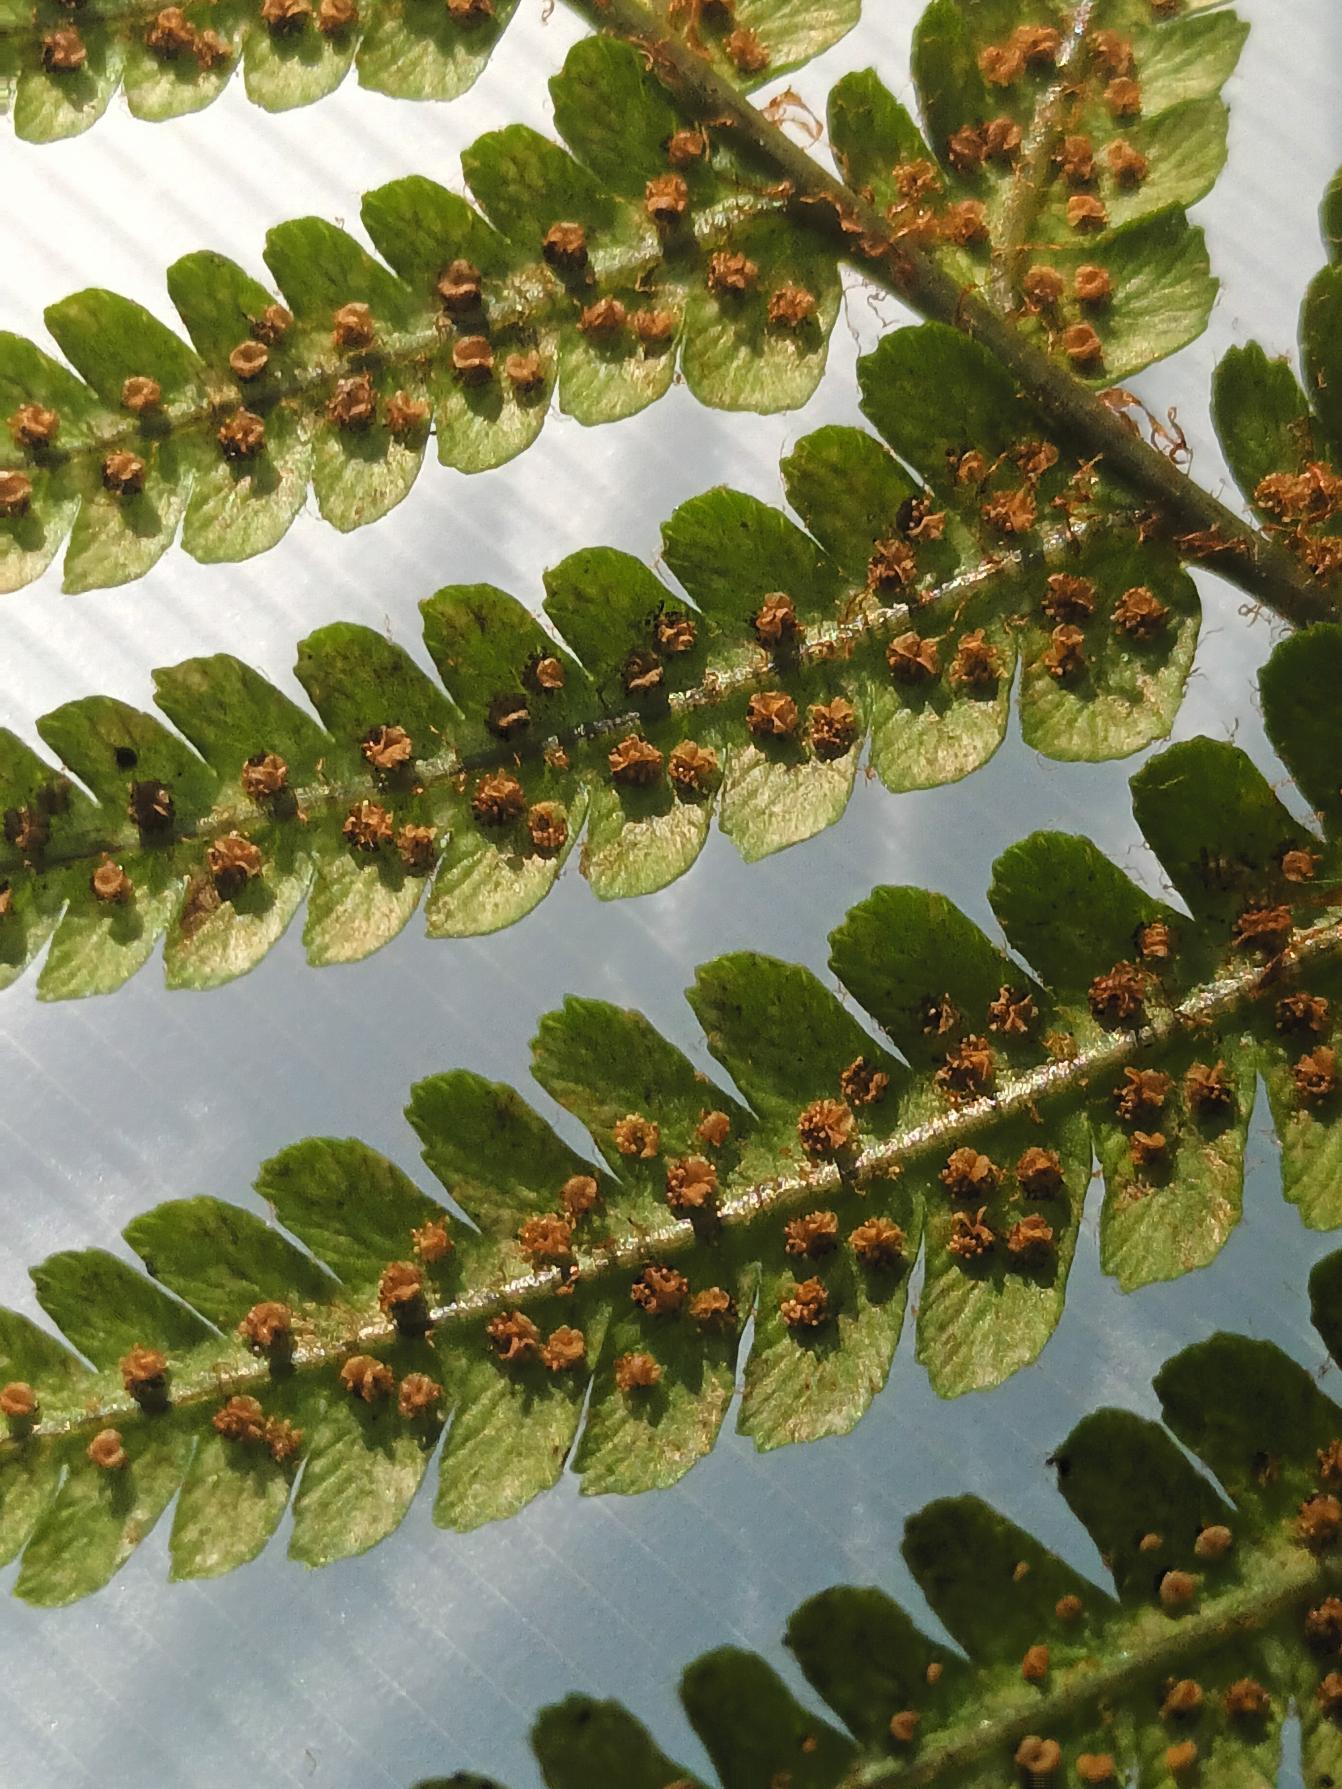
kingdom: Plantae
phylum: Tracheophyta
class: Polypodiopsida
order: Polypodiales
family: Dryopteridaceae
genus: Dryopteris
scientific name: Dryopteris cambrensis
